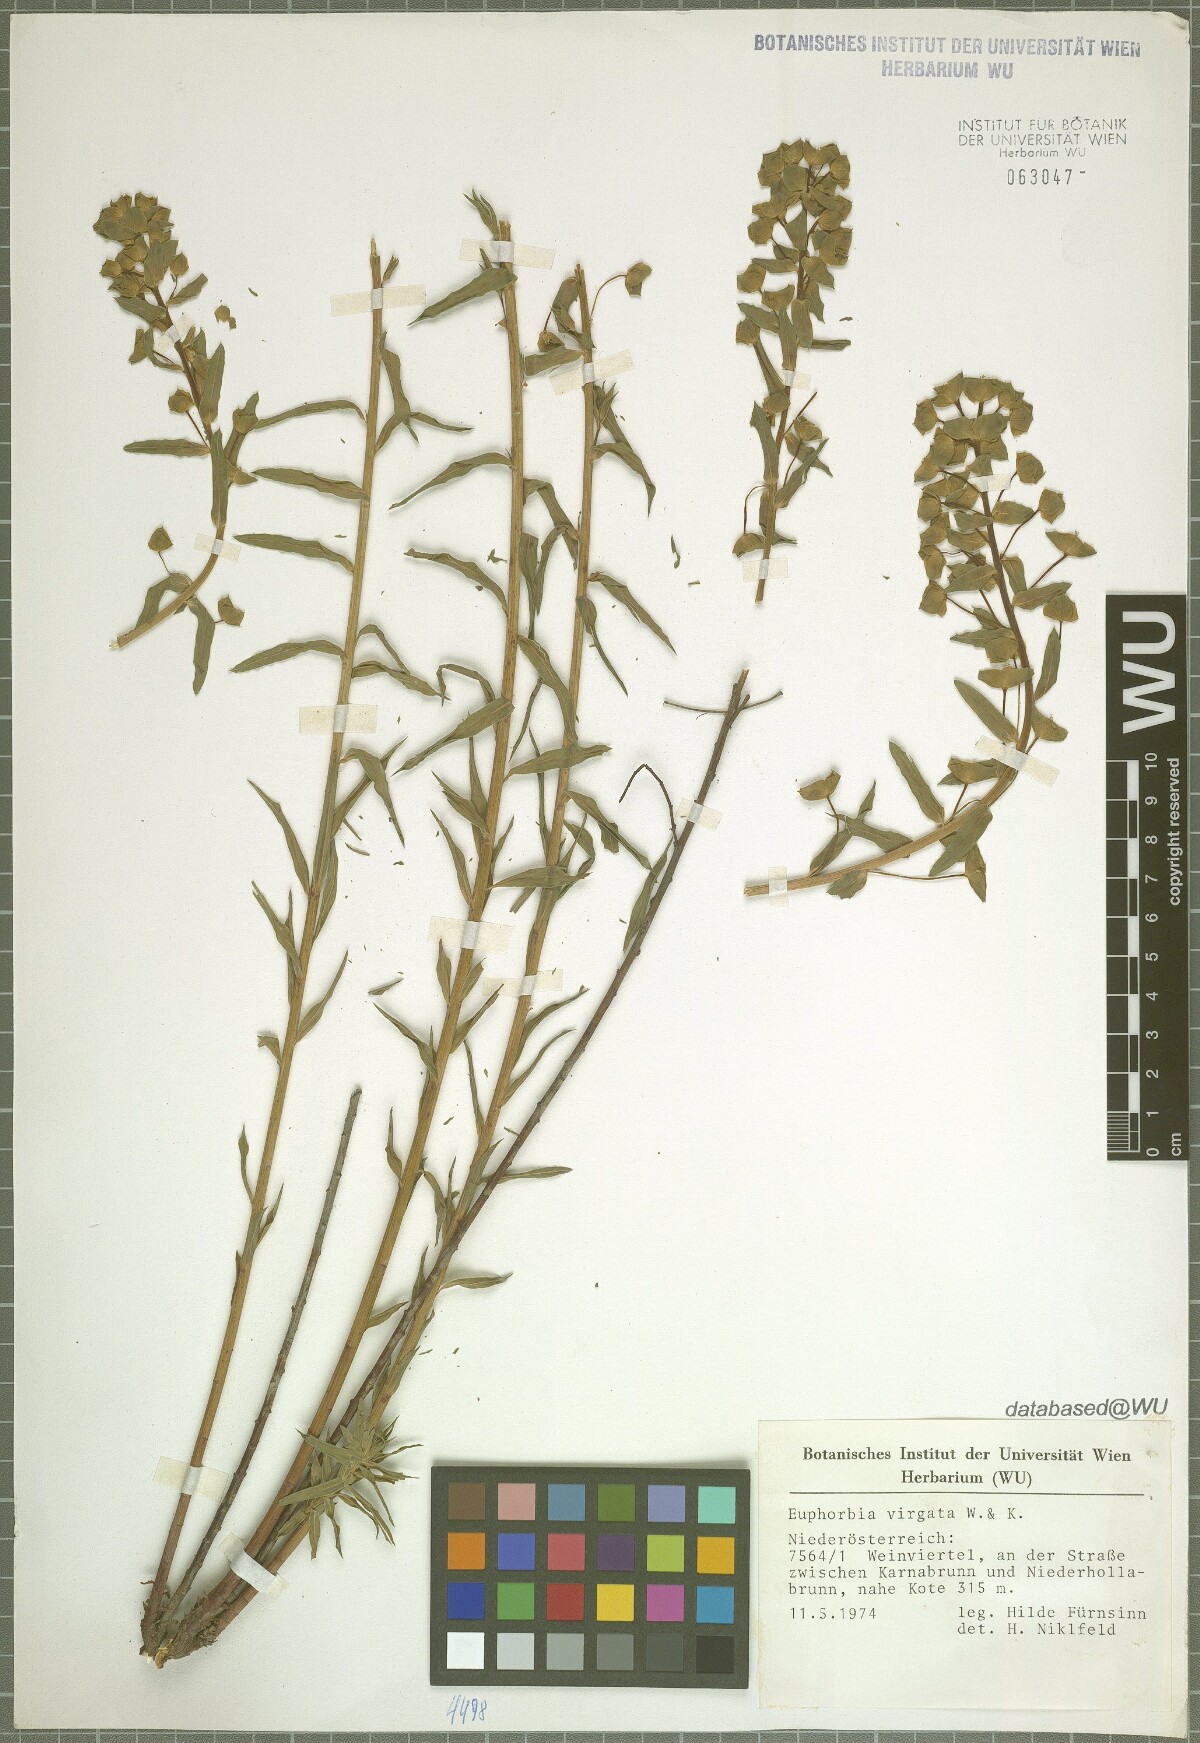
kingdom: Plantae
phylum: Tracheophyta
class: Magnoliopsida
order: Malpighiales
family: Euphorbiaceae
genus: Euphorbia
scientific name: Euphorbia virgata
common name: Leafy spurge
